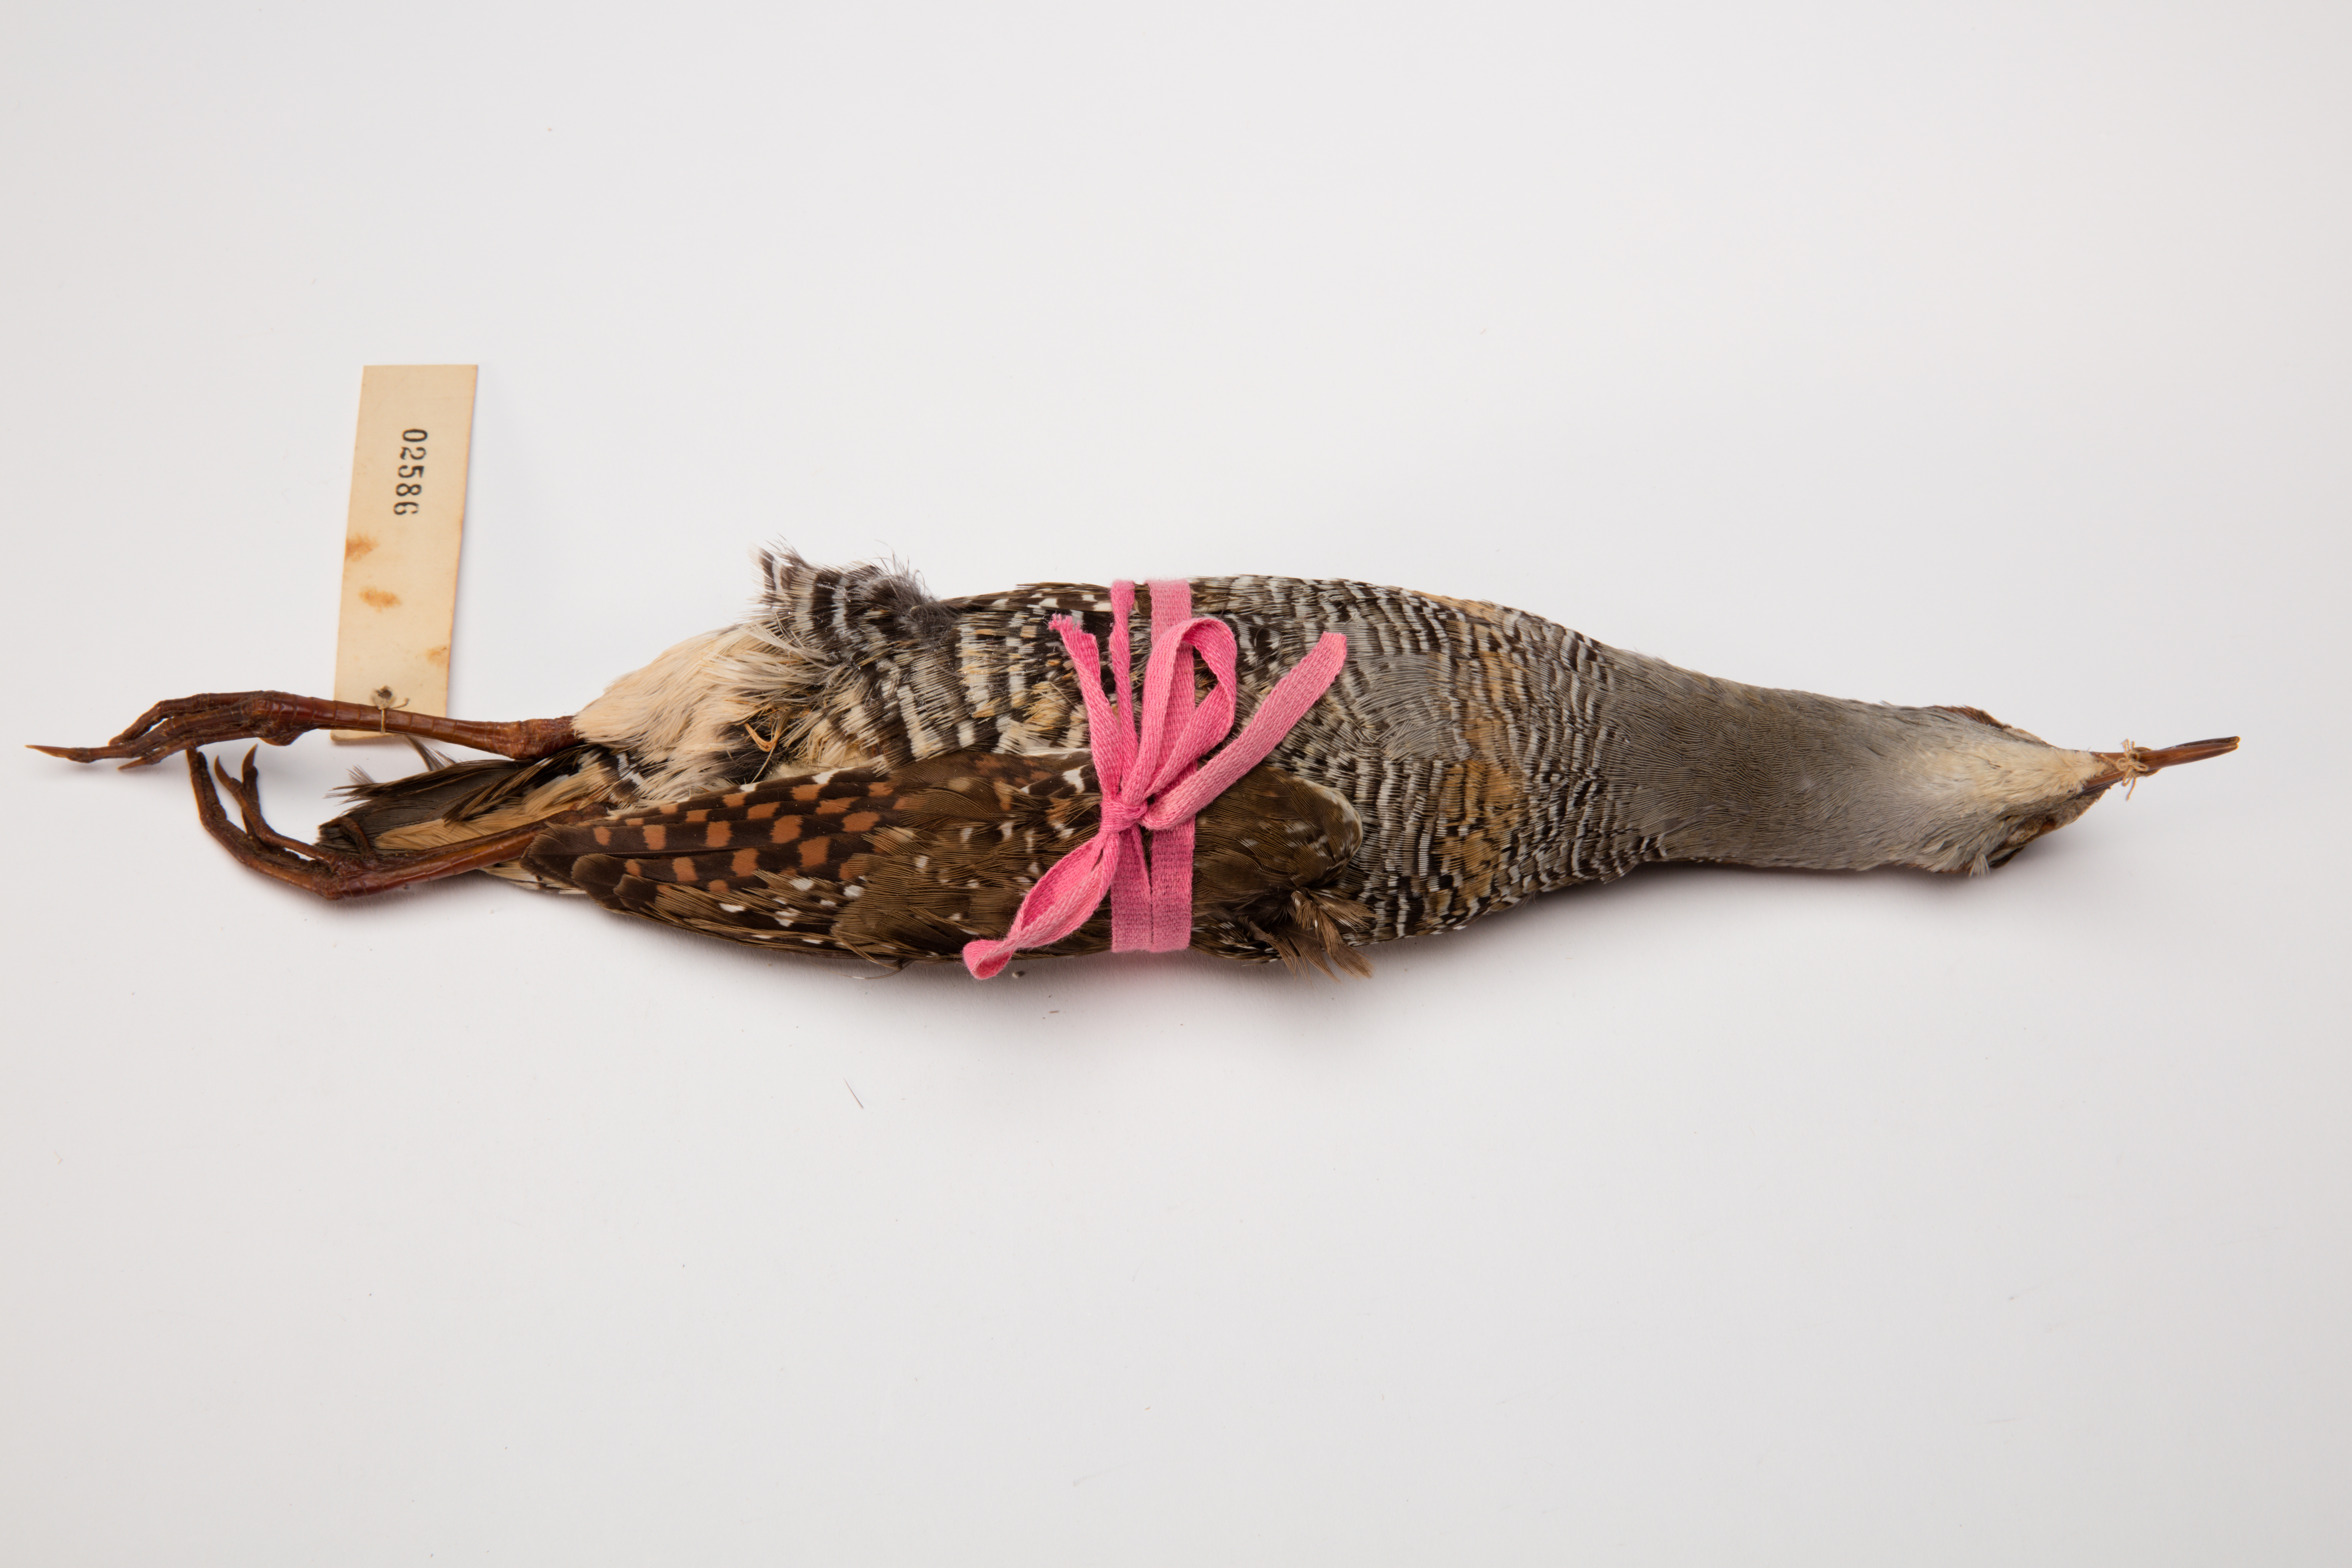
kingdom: Animalia
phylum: Chordata
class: Aves
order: Gruiformes
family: Rallidae
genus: Gallirallus
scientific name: Gallirallus philippensis
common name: Buff-banded rail
